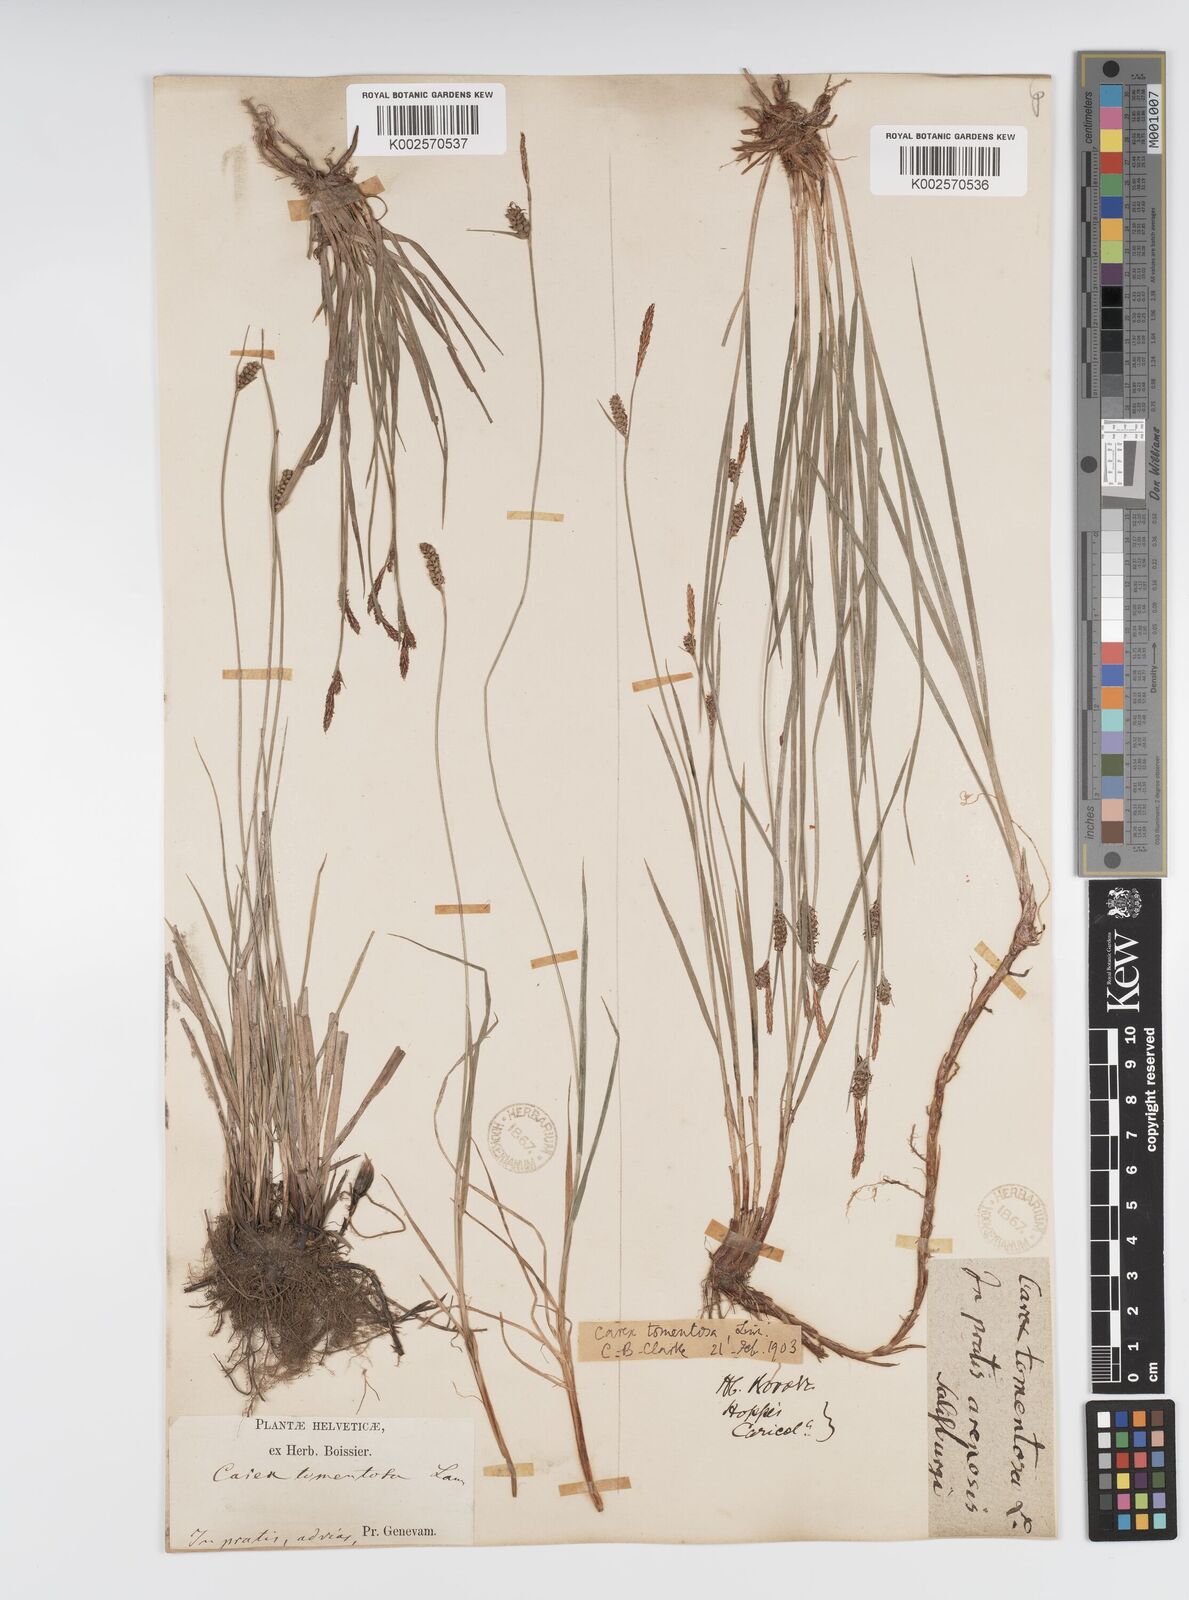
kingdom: Plantae
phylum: Tracheophyta
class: Liliopsida
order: Poales
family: Cyperaceae
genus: Carex
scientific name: Carex montana
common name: Soft-leaved sedge
